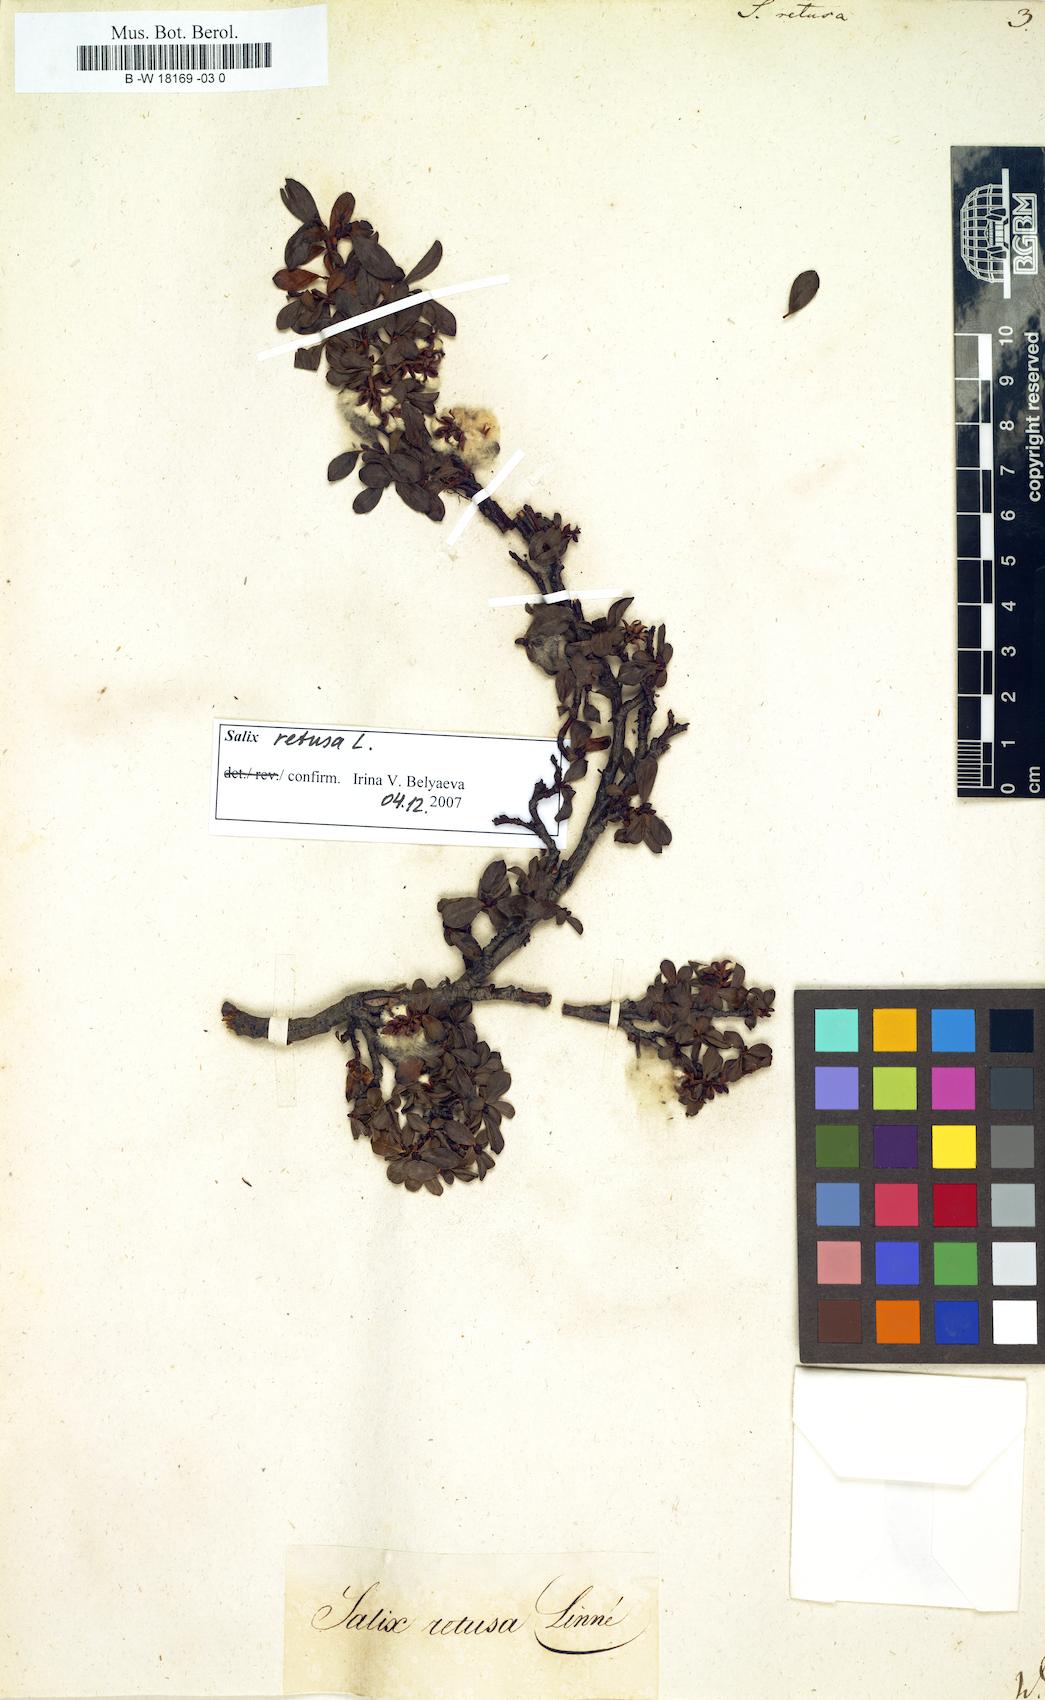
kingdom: Plantae
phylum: Tracheophyta
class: Magnoliopsida
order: Malpighiales
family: Salicaceae
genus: Salix
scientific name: Salix retusa
